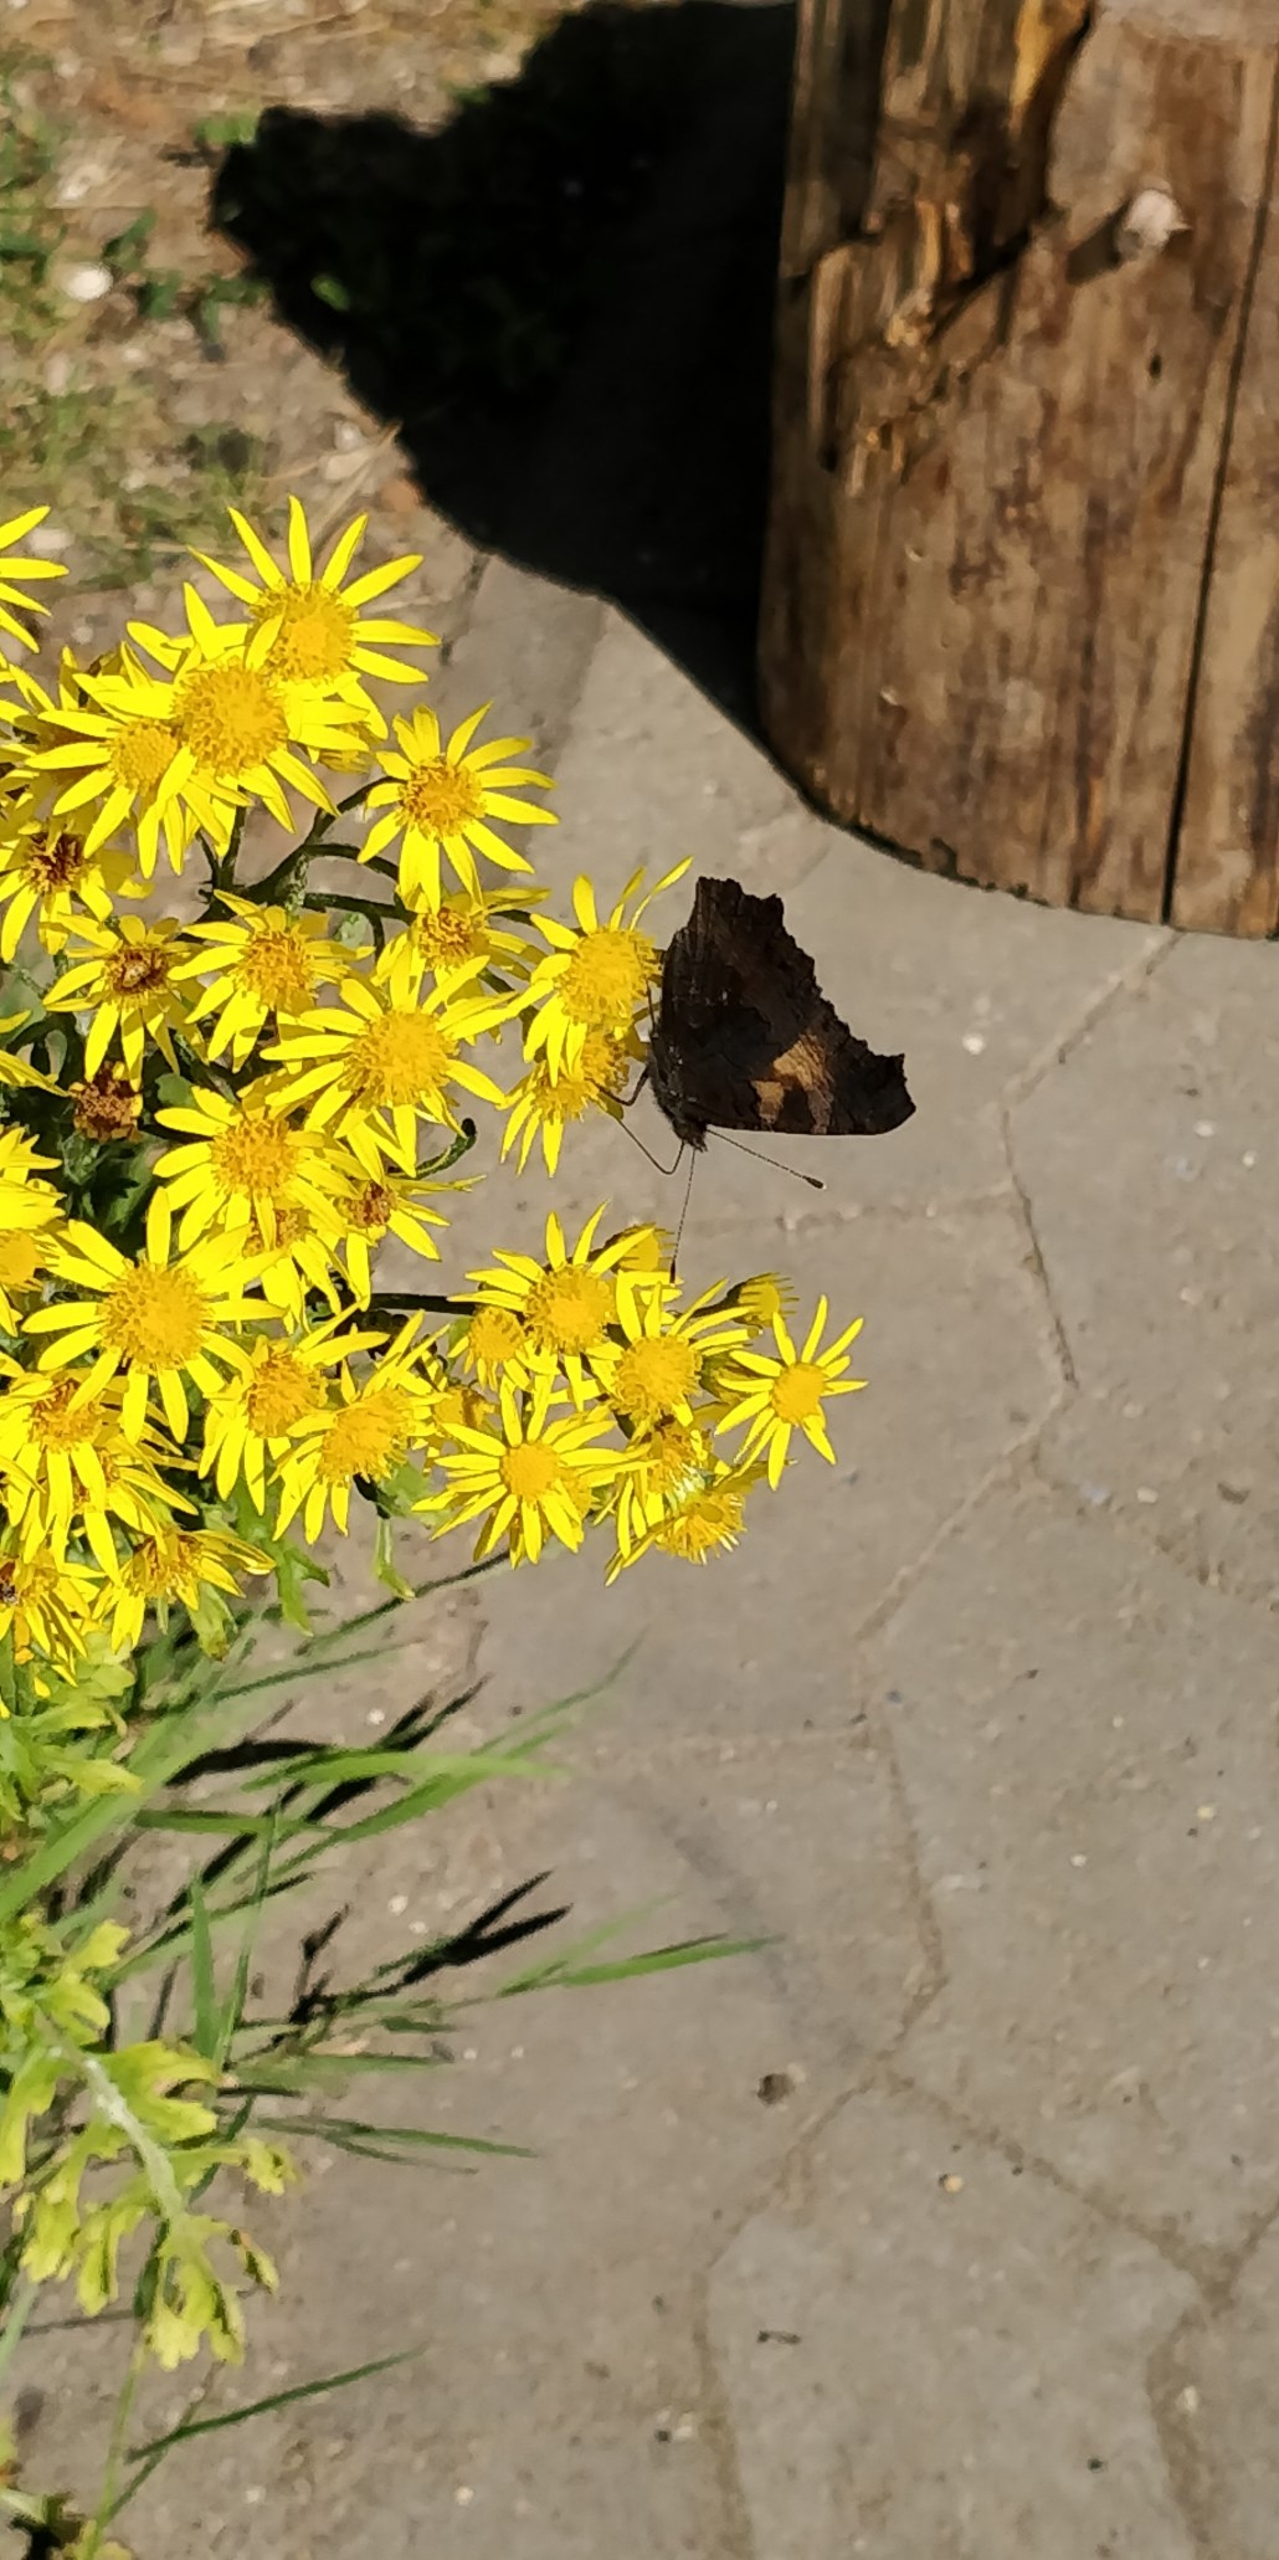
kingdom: Animalia
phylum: Arthropoda
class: Insecta
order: Lepidoptera
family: Nymphalidae
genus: Aglais
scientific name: Aglais urticae
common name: Nældens takvinge
